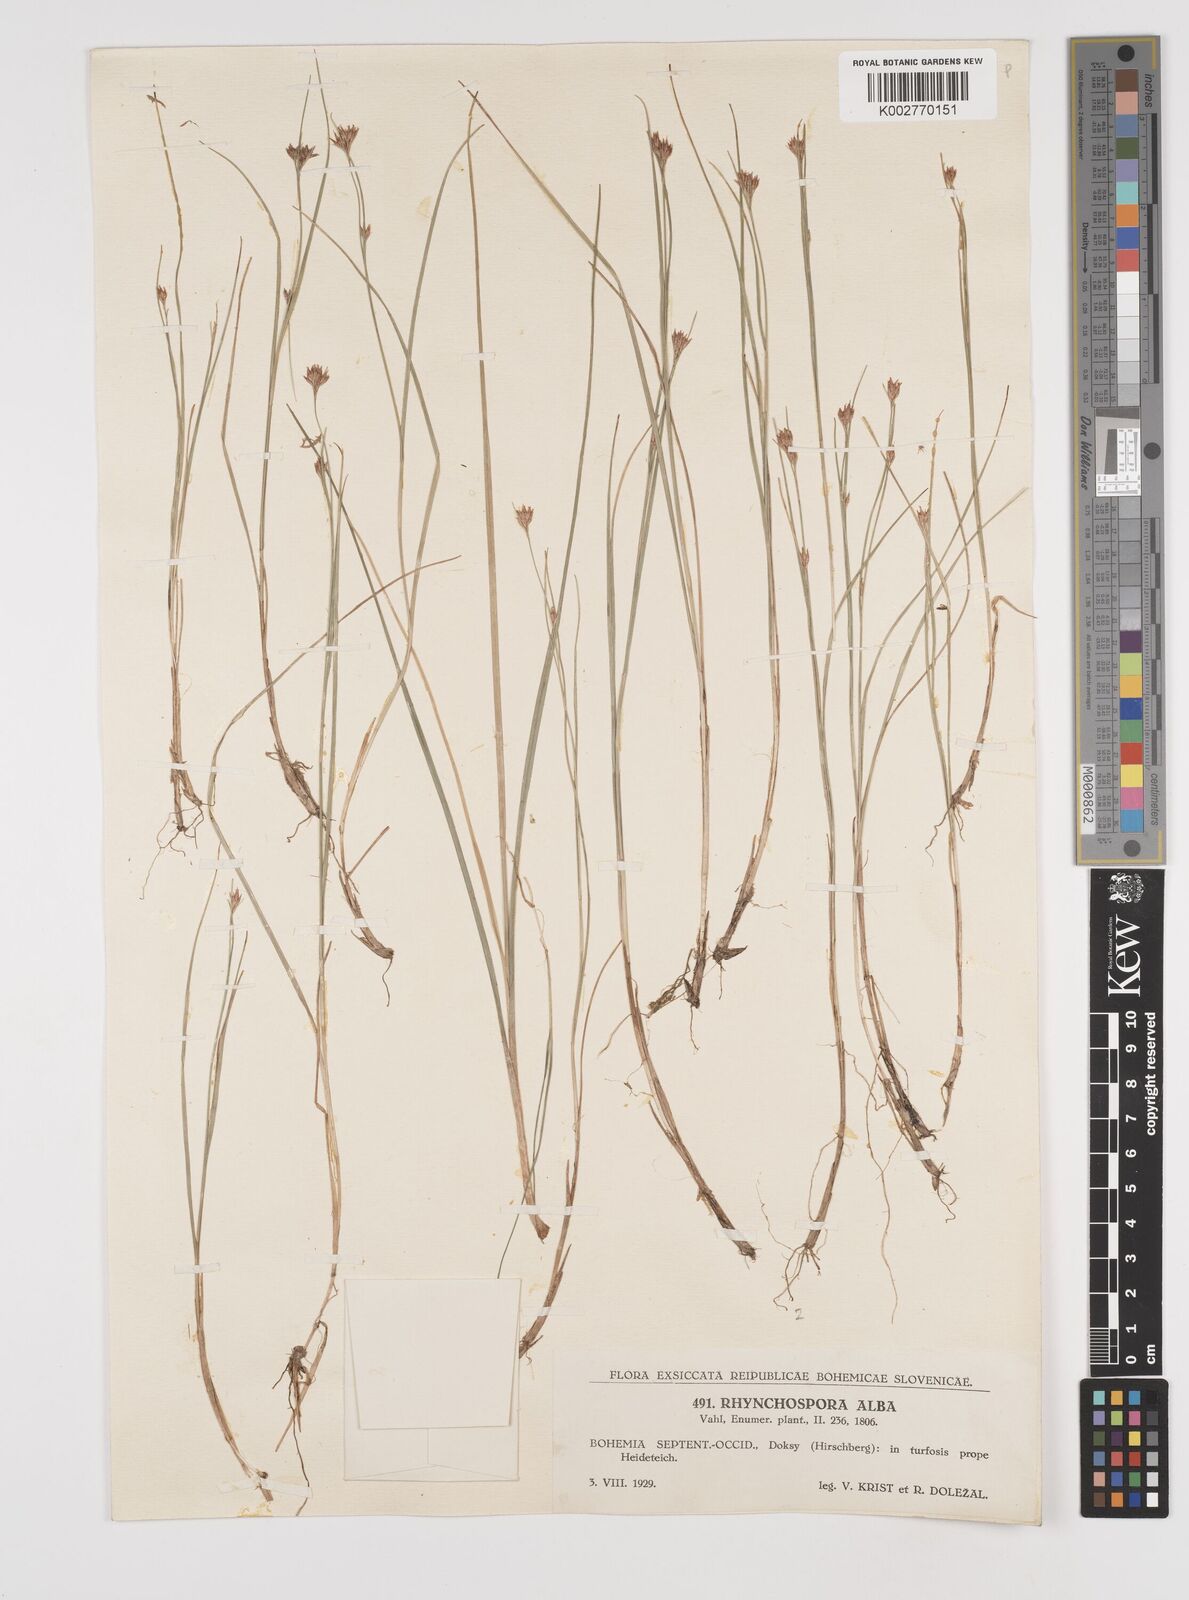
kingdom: Plantae
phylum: Tracheophyta
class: Liliopsida
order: Poales
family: Cyperaceae
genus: Rhynchospora
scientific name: Rhynchospora alba
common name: White beak-sedge
